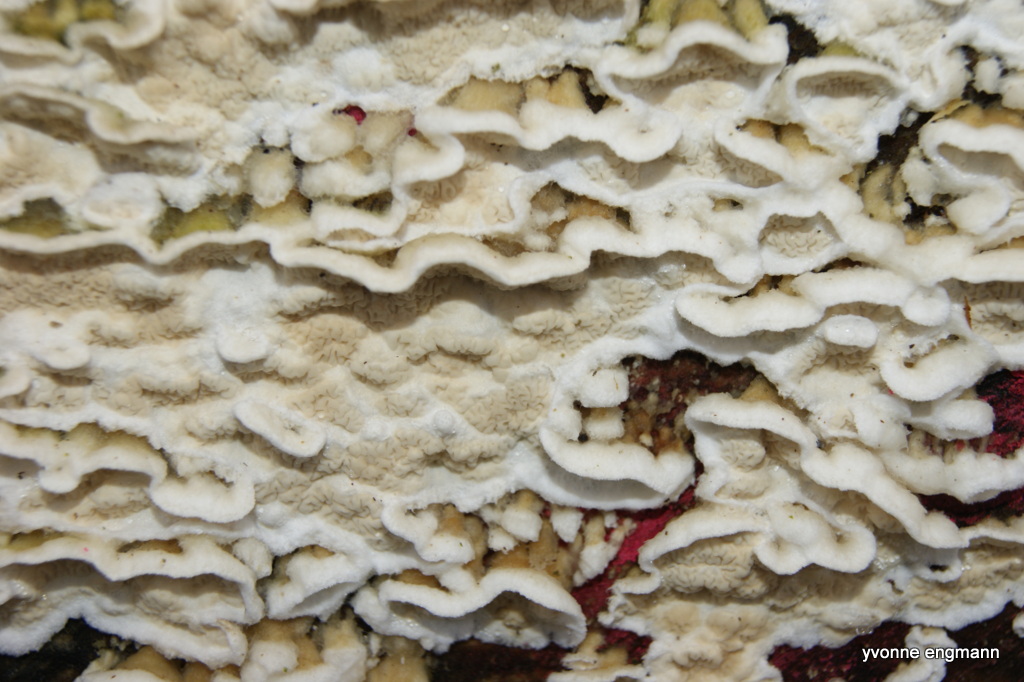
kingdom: Fungi
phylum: Basidiomycota
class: Agaricomycetes
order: Polyporales
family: Irpicaceae
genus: Byssomerulius
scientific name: Byssomerulius corium
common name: læder-åresvamp
